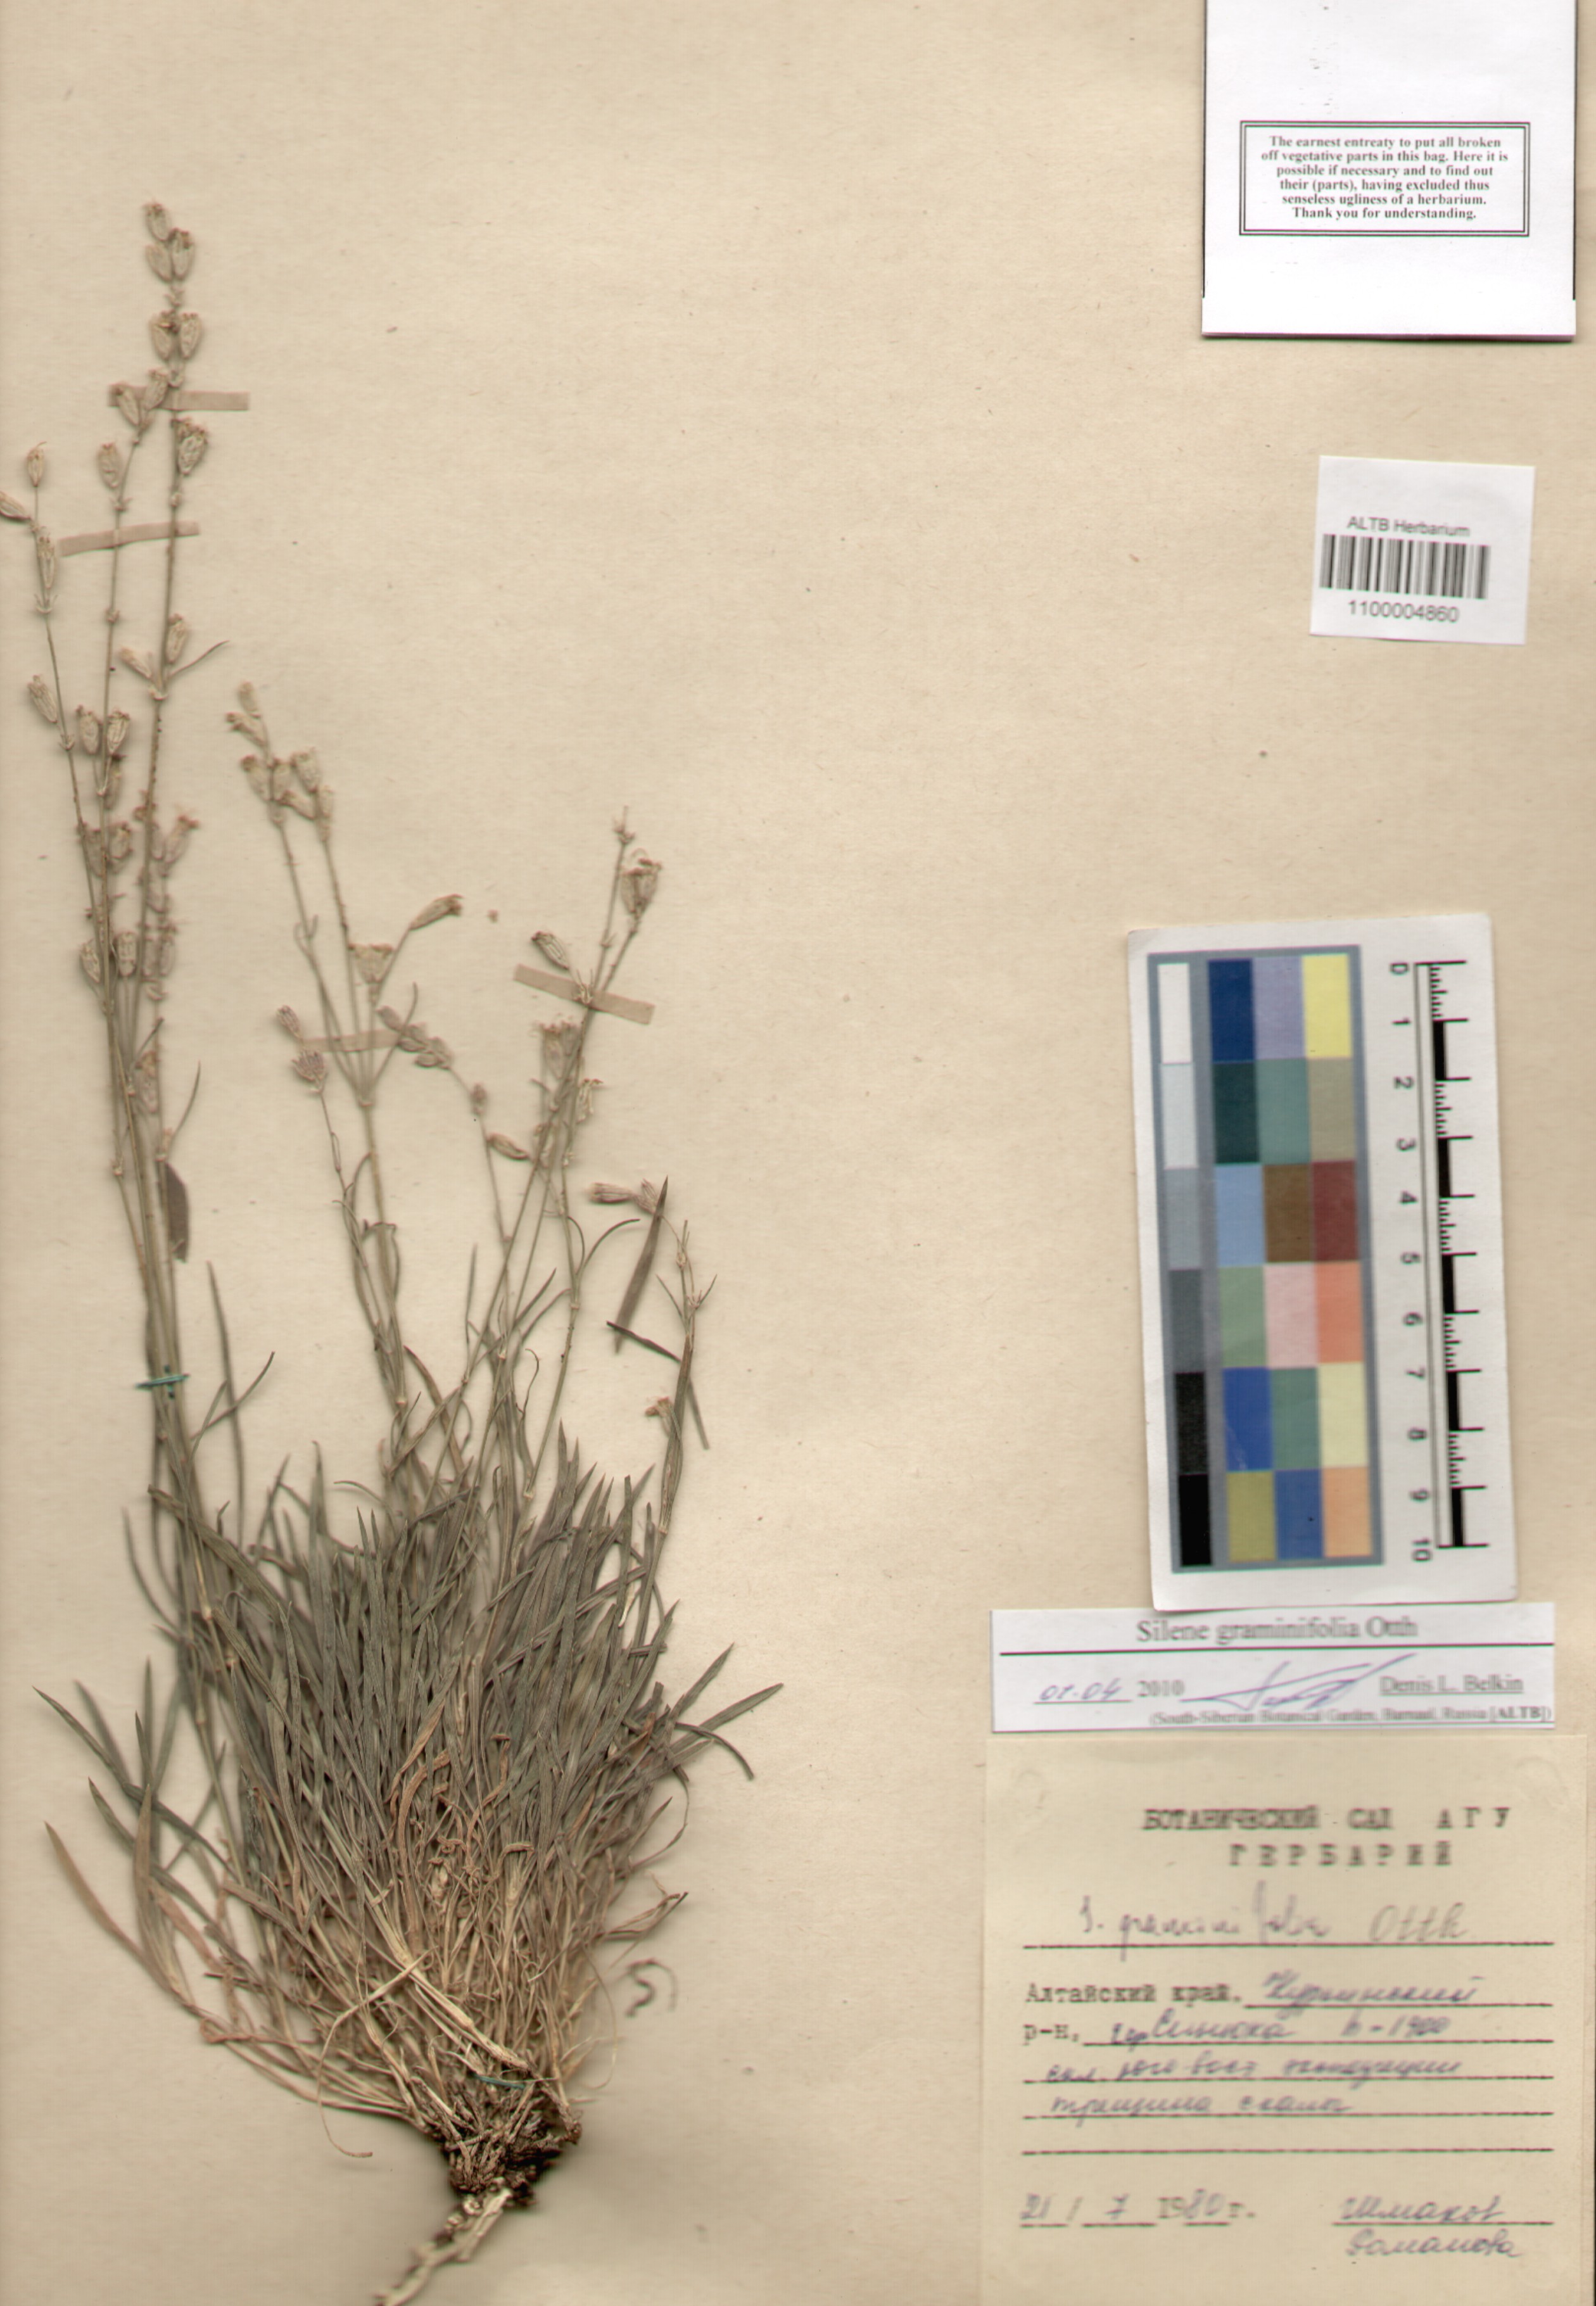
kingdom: Plantae
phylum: Tracheophyta
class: Magnoliopsida
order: Caryophyllales
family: Caryophyllaceae
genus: Silene
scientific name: Silene graminifolia
